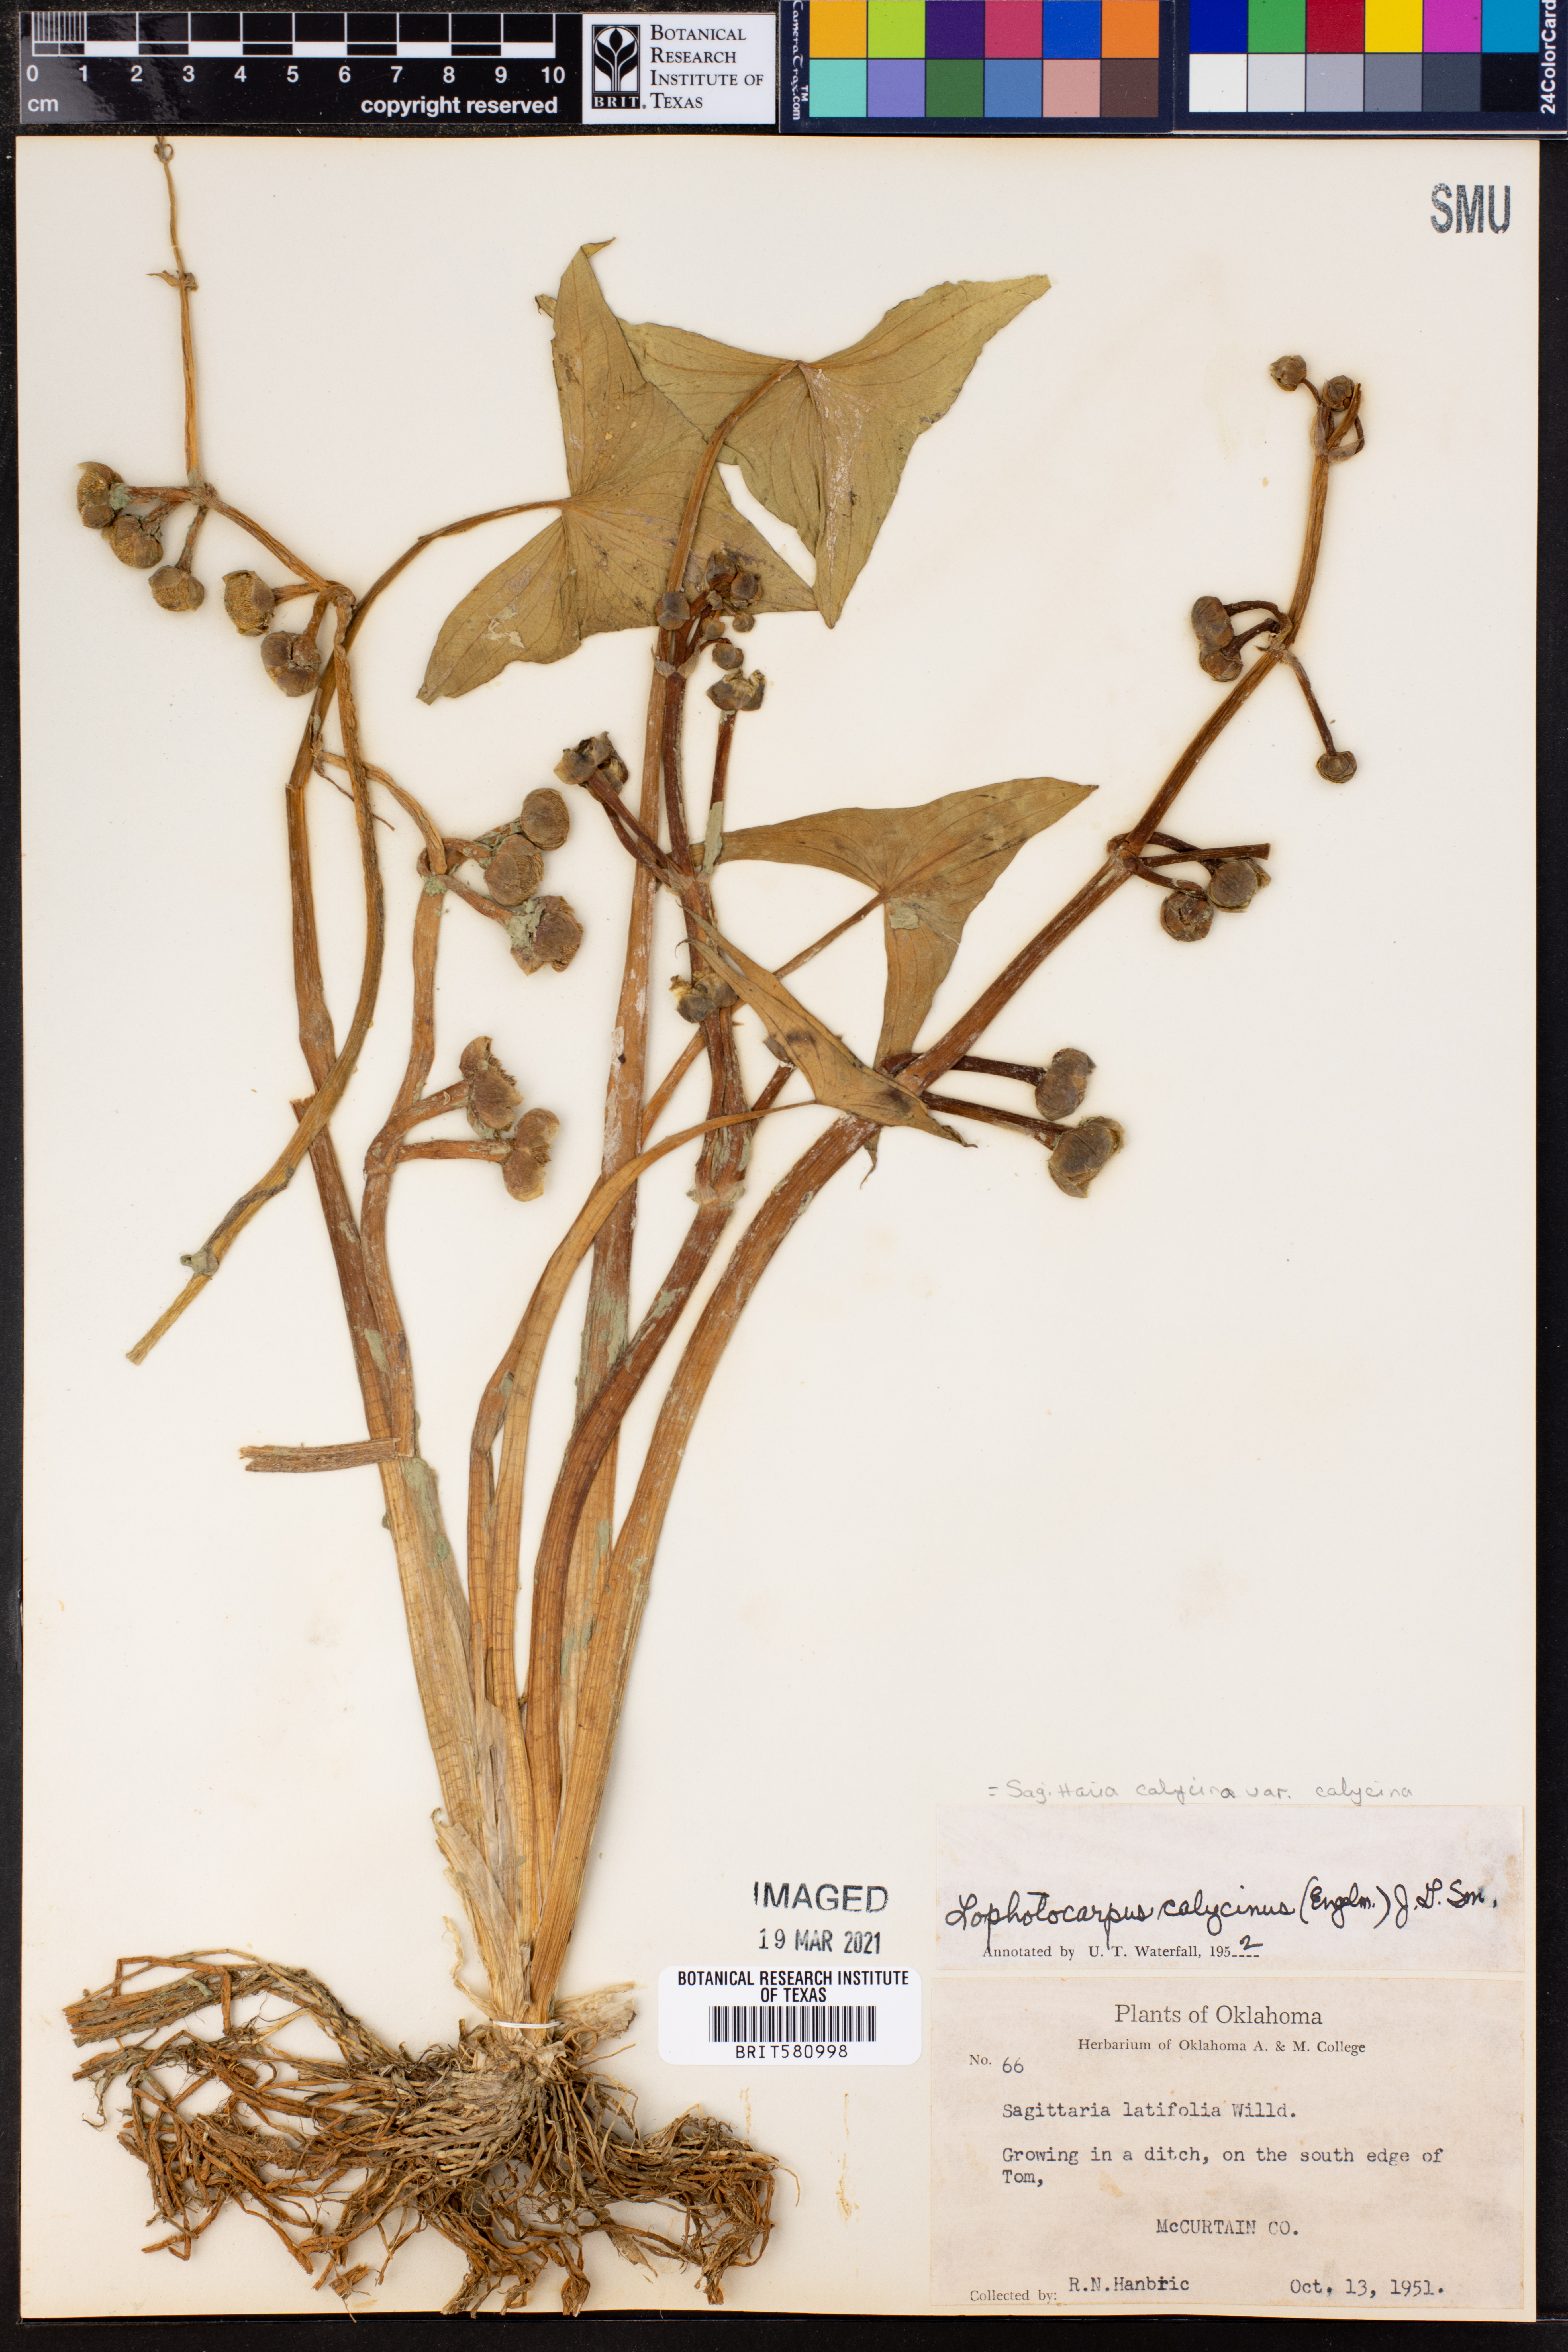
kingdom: Plantae
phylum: Tracheophyta
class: Liliopsida
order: Alismatales
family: Alismataceae
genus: Sagittaria
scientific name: Sagittaria montevidensis
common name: Giant arrowhead
